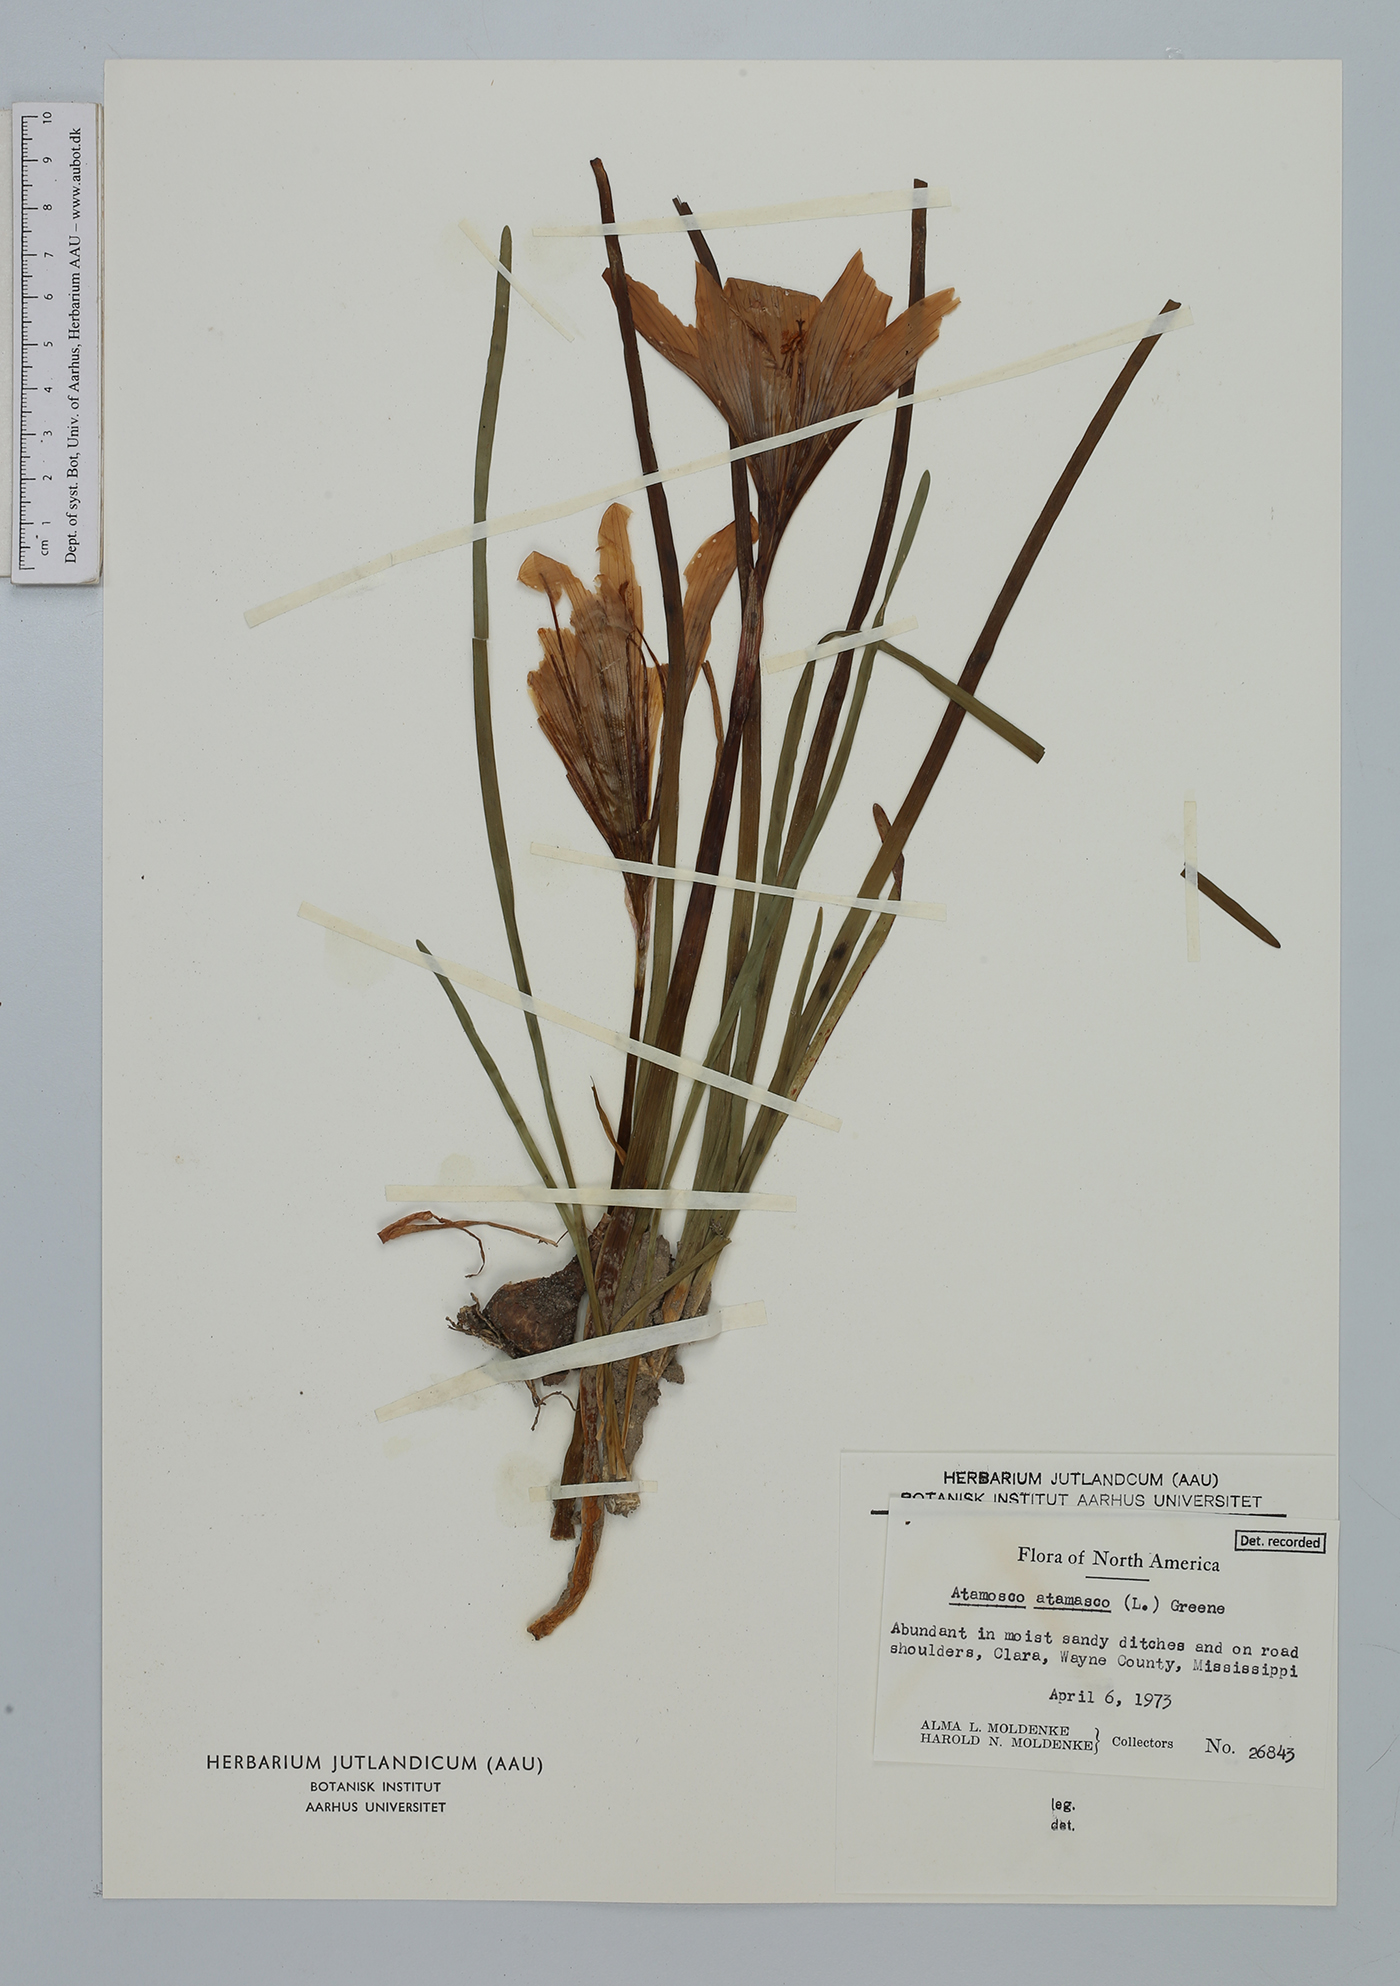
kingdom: Plantae
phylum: Tracheophyta
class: Liliopsida
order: Asparagales
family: Amaryllidaceae
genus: Zephyranthes
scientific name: Zephyranthes atamasco
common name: Atamasco lily
